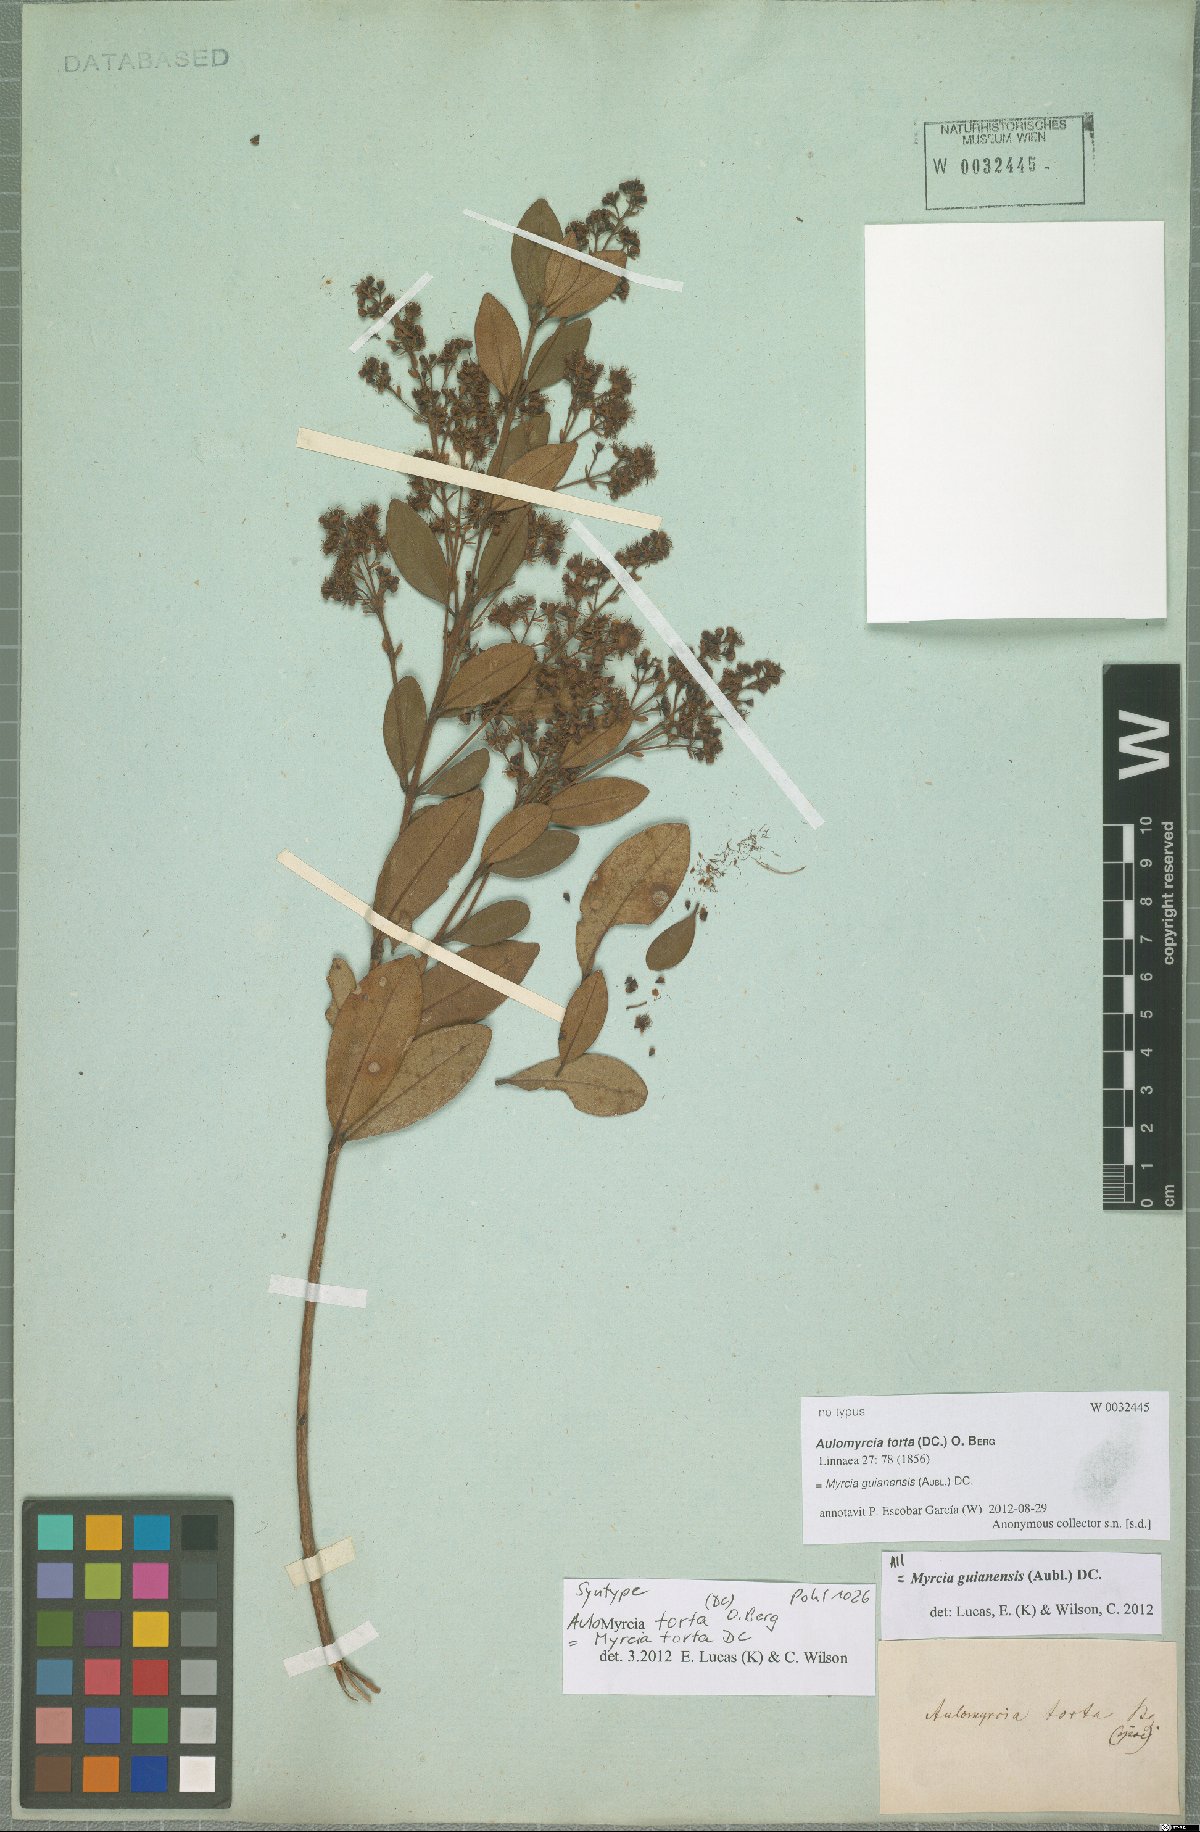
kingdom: Plantae
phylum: Tracheophyta
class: Magnoliopsida
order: Myrtales
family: Myrtaceae
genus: Myrcia
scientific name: Myrcia guianensis
